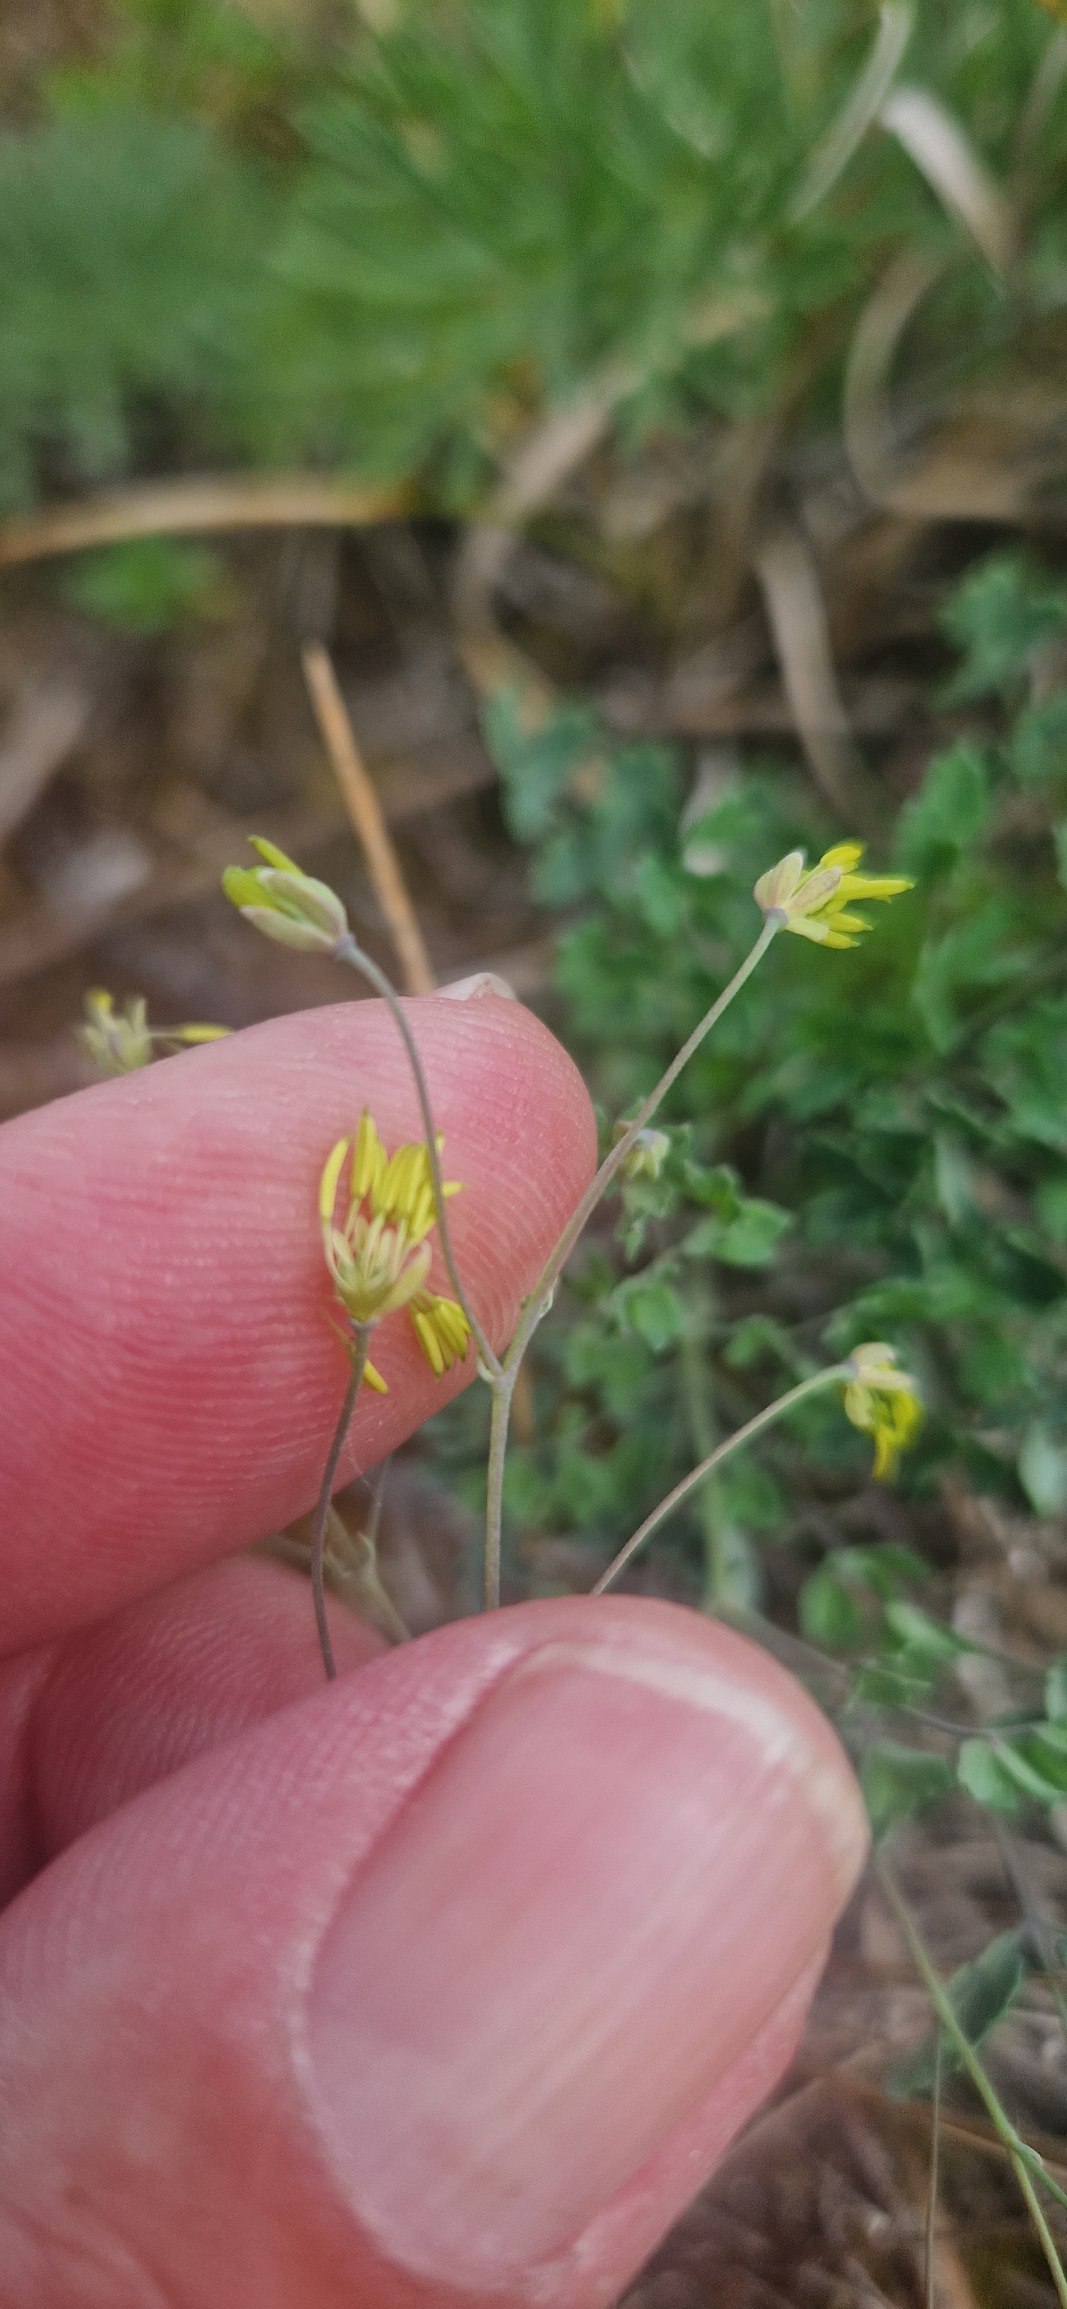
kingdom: Plantae
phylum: Tracheophyta
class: Magnoliopsida
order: Ranunculales
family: Ranunculaceae
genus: Thalictrum
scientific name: Thalictrum minus
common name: Sand-frøstjerne
